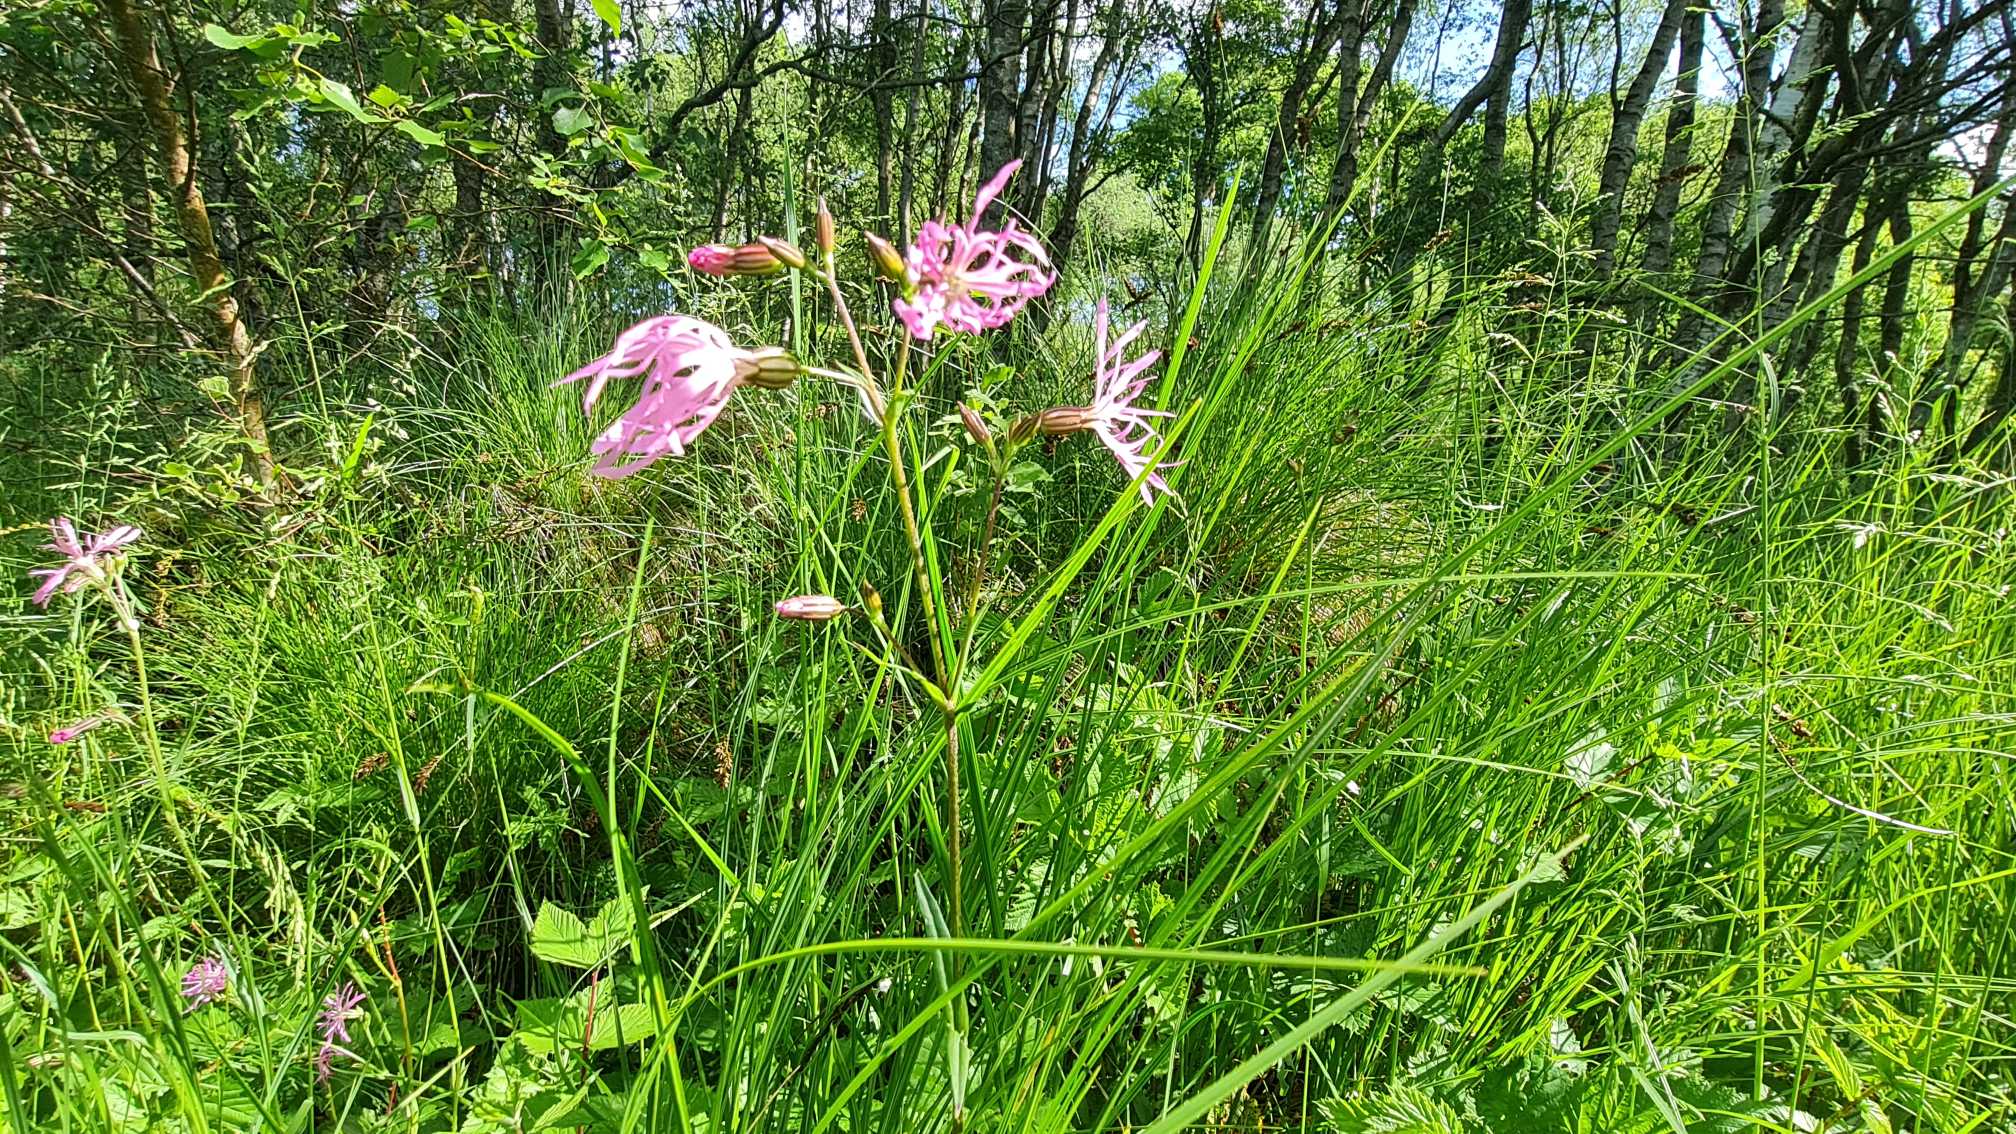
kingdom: Plantae
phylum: Tracheophyta
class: Magnoliopsida
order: Caryophyllales
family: Caryophyllaceae
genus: Silene
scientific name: Silene flos-cuculi
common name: Trævlekrone
